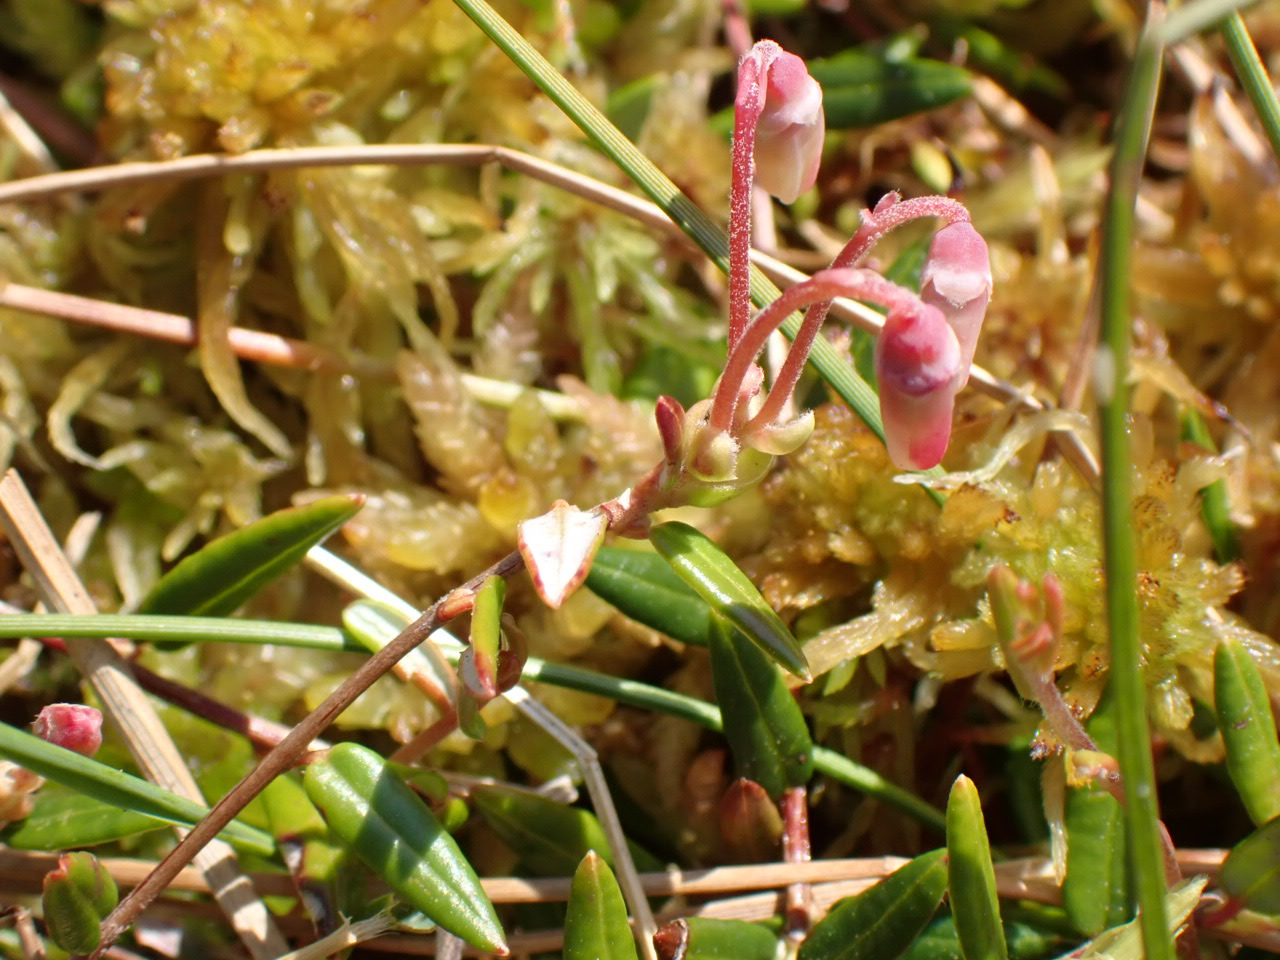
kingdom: Plantae
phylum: Tracheophyta
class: Magnoliopsida
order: Ericales
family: Ericaceae
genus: Vaccinium
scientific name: Vaccinium oxycoccos
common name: Tranebær
